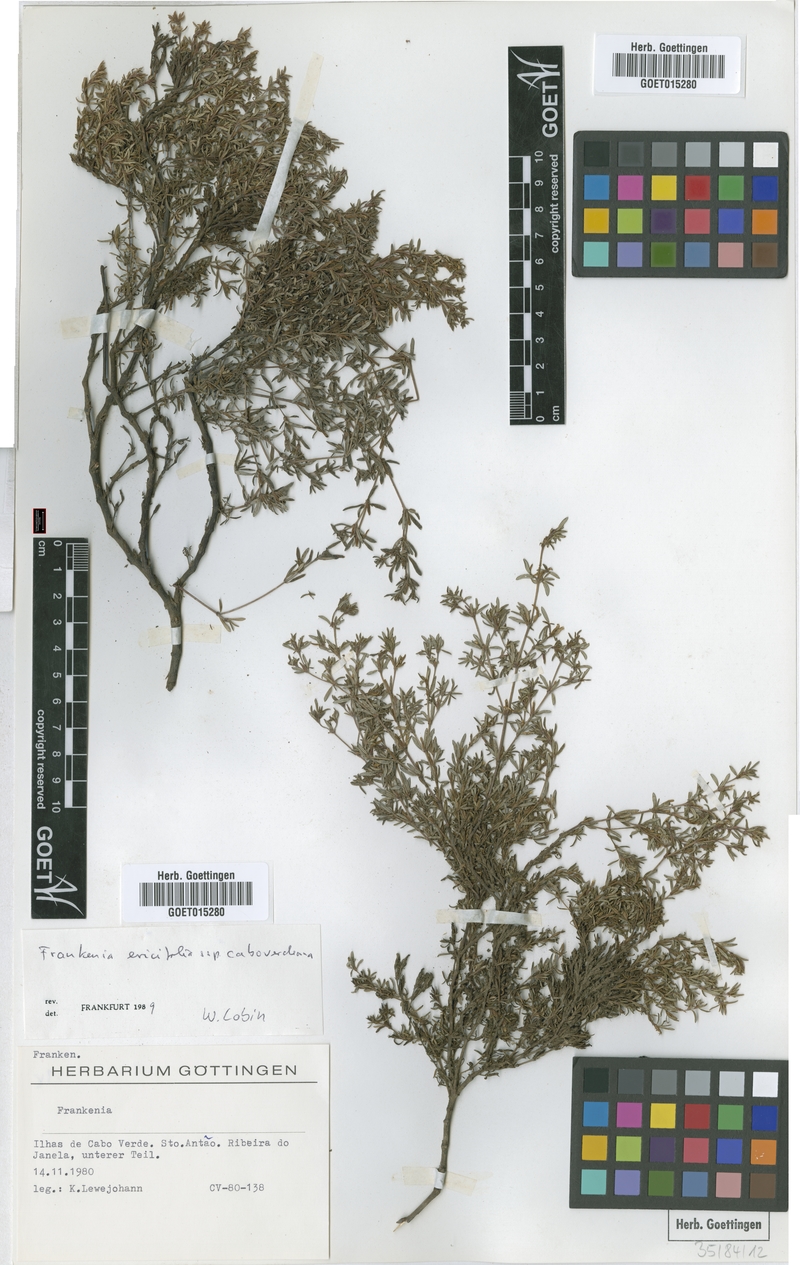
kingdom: Plantae
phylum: Tracheophyta
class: Magnoliopsida
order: Caryophyllales
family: Frankeniaceae
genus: Frankenia
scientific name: Frankenia caboverdeana
